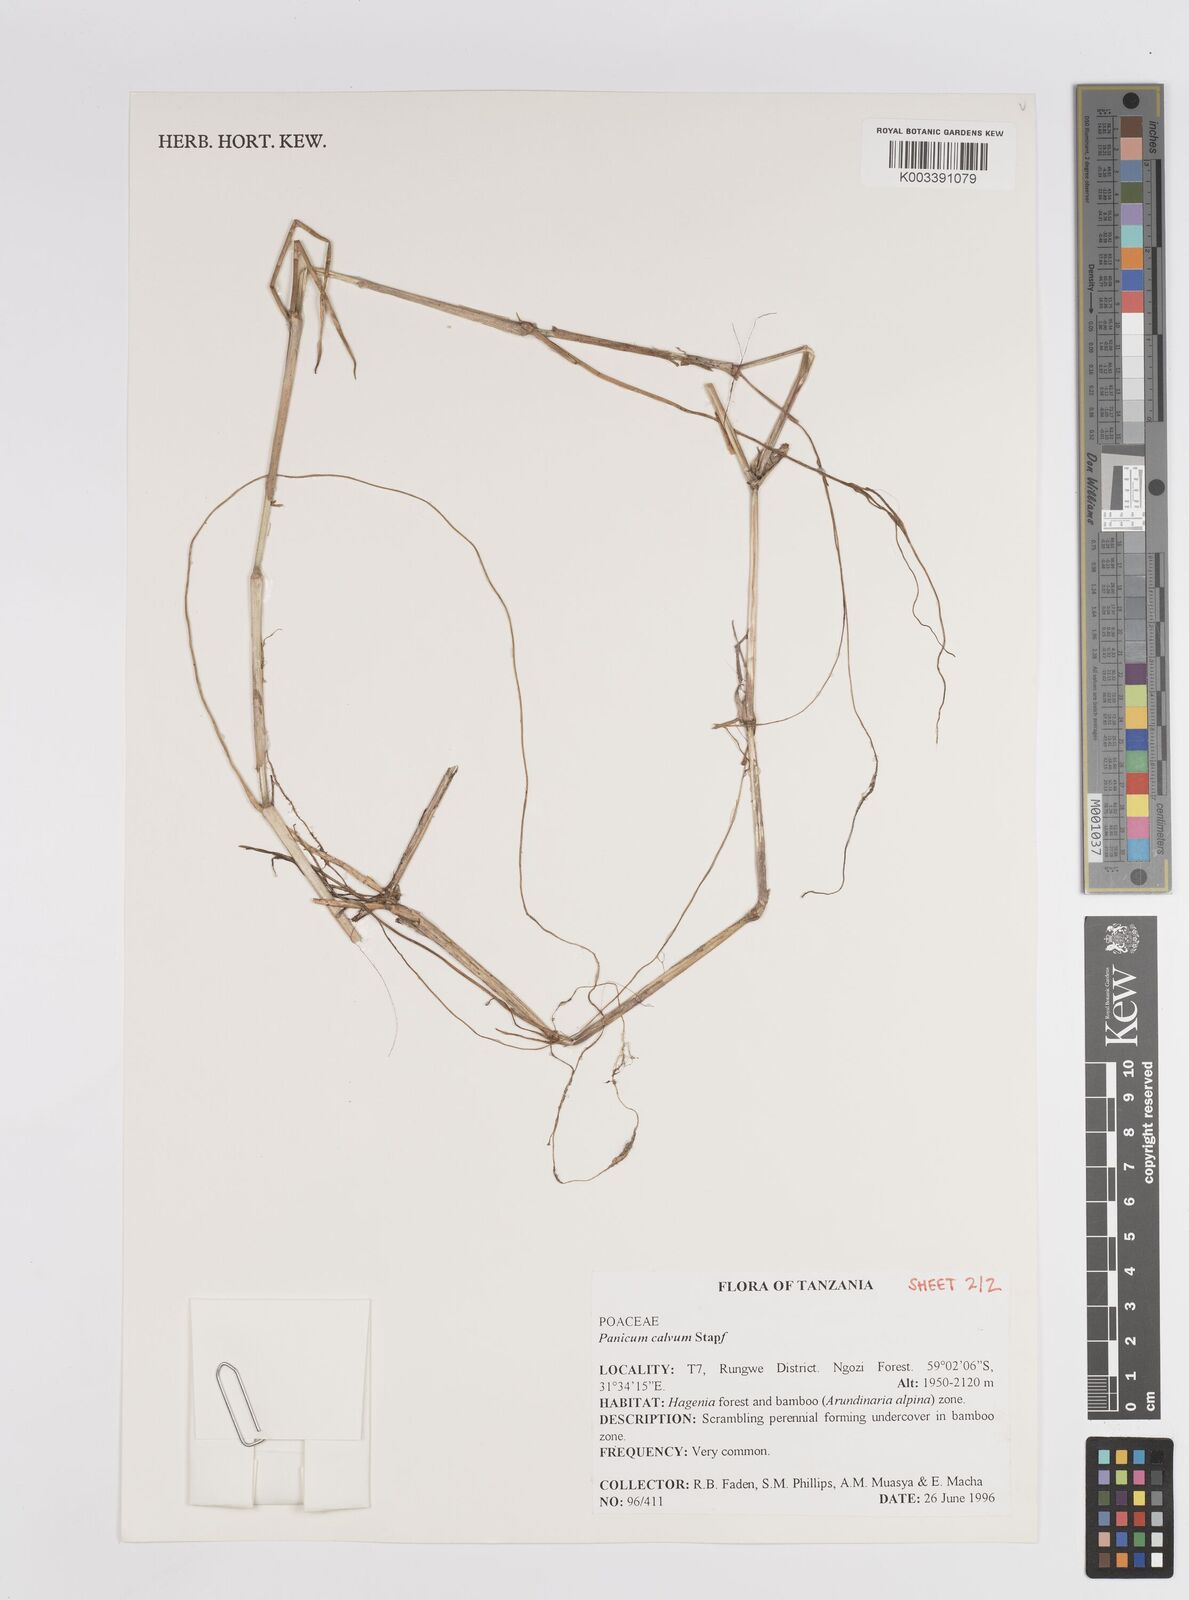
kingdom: Plantae
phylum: Tracheophyta
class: Liliopsida
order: Poales
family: Poaceae
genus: Panicum
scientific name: Panicum calvum
